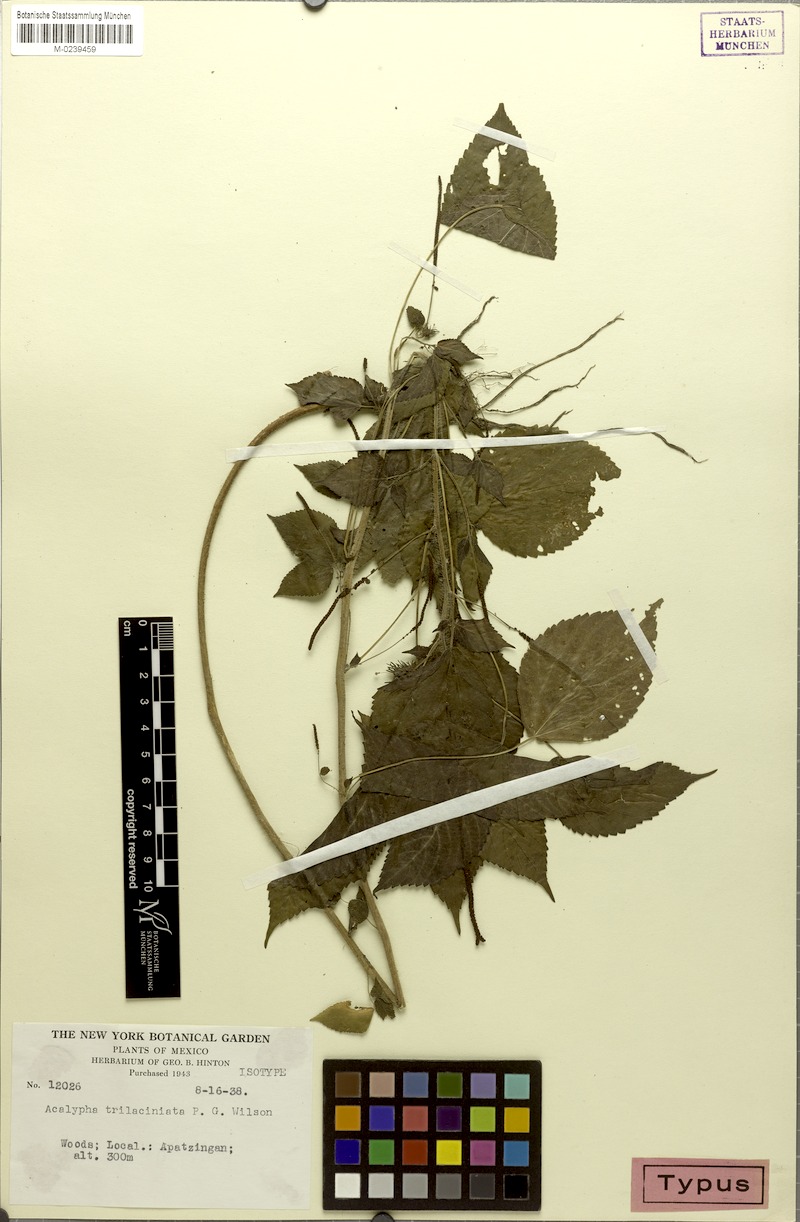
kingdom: Plantae
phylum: Tracheophyta
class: Magnoliopsida
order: Malpighiales
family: Euphorbiaceae
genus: Acalypha
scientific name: Acalypha trilaciniata
